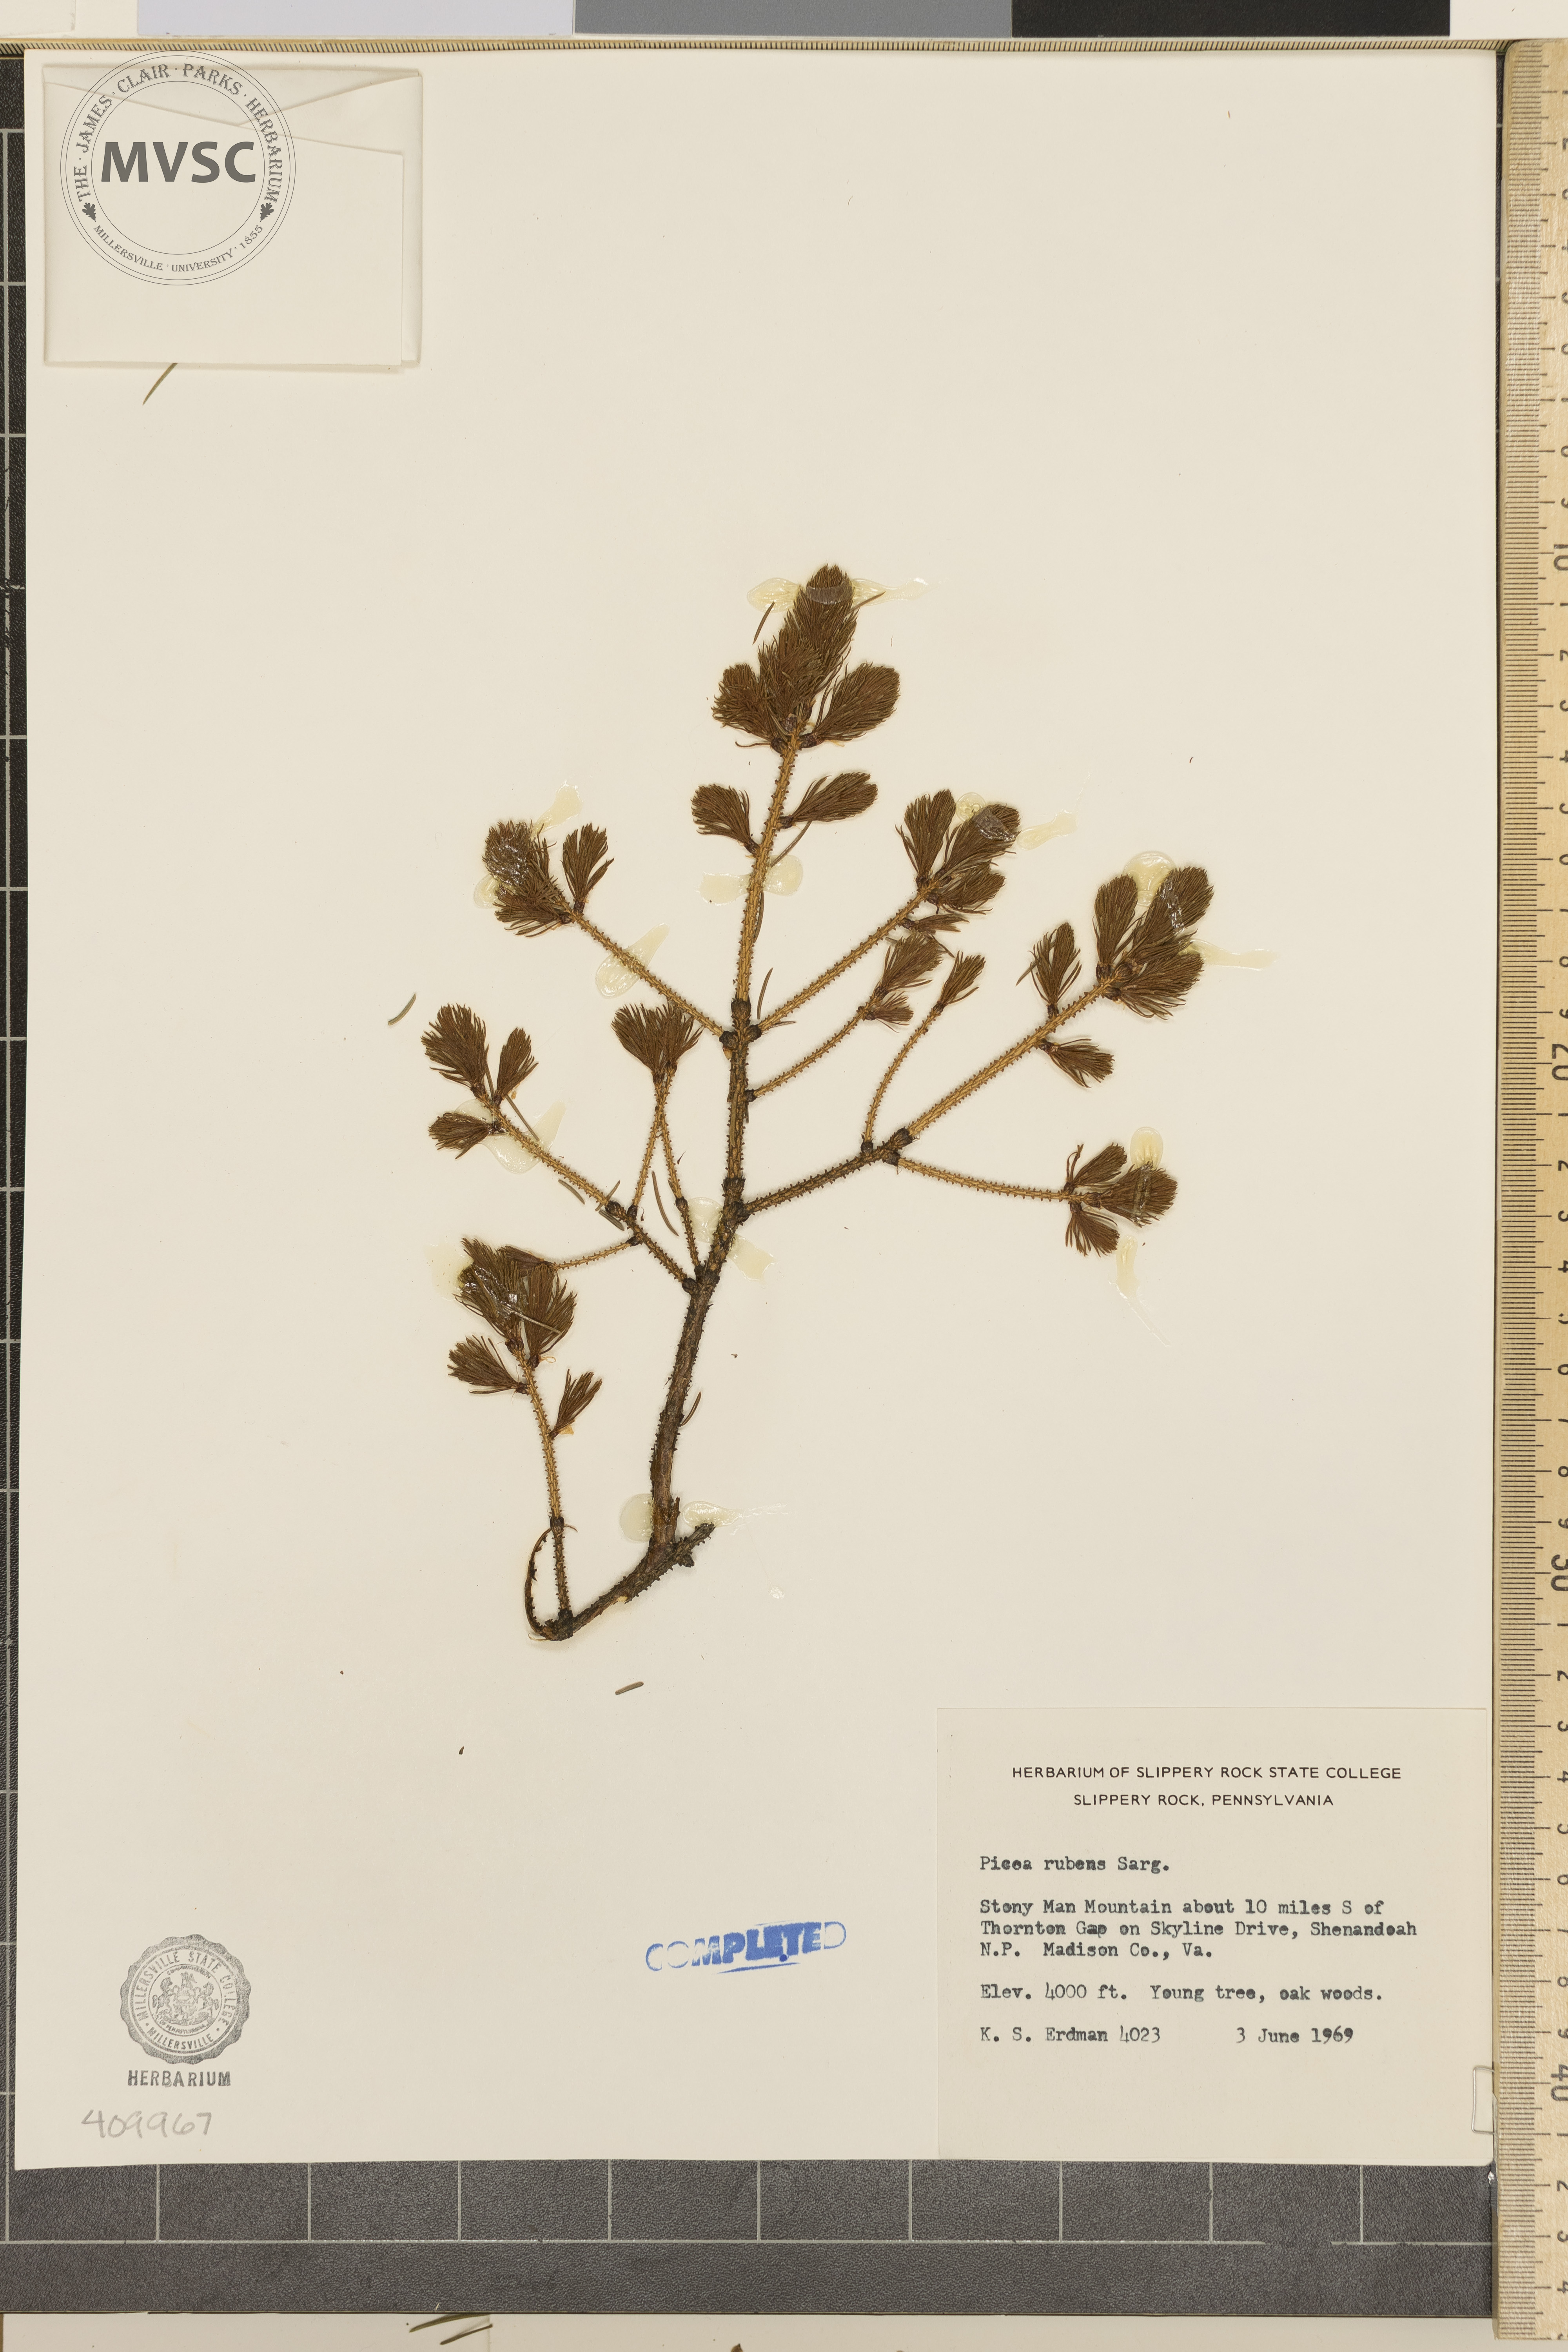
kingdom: Plantae
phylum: Tracheophyta
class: Pinopsida
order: Pinales
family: Pinaceae
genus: Picea
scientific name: Picea rubens
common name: Red spruce
